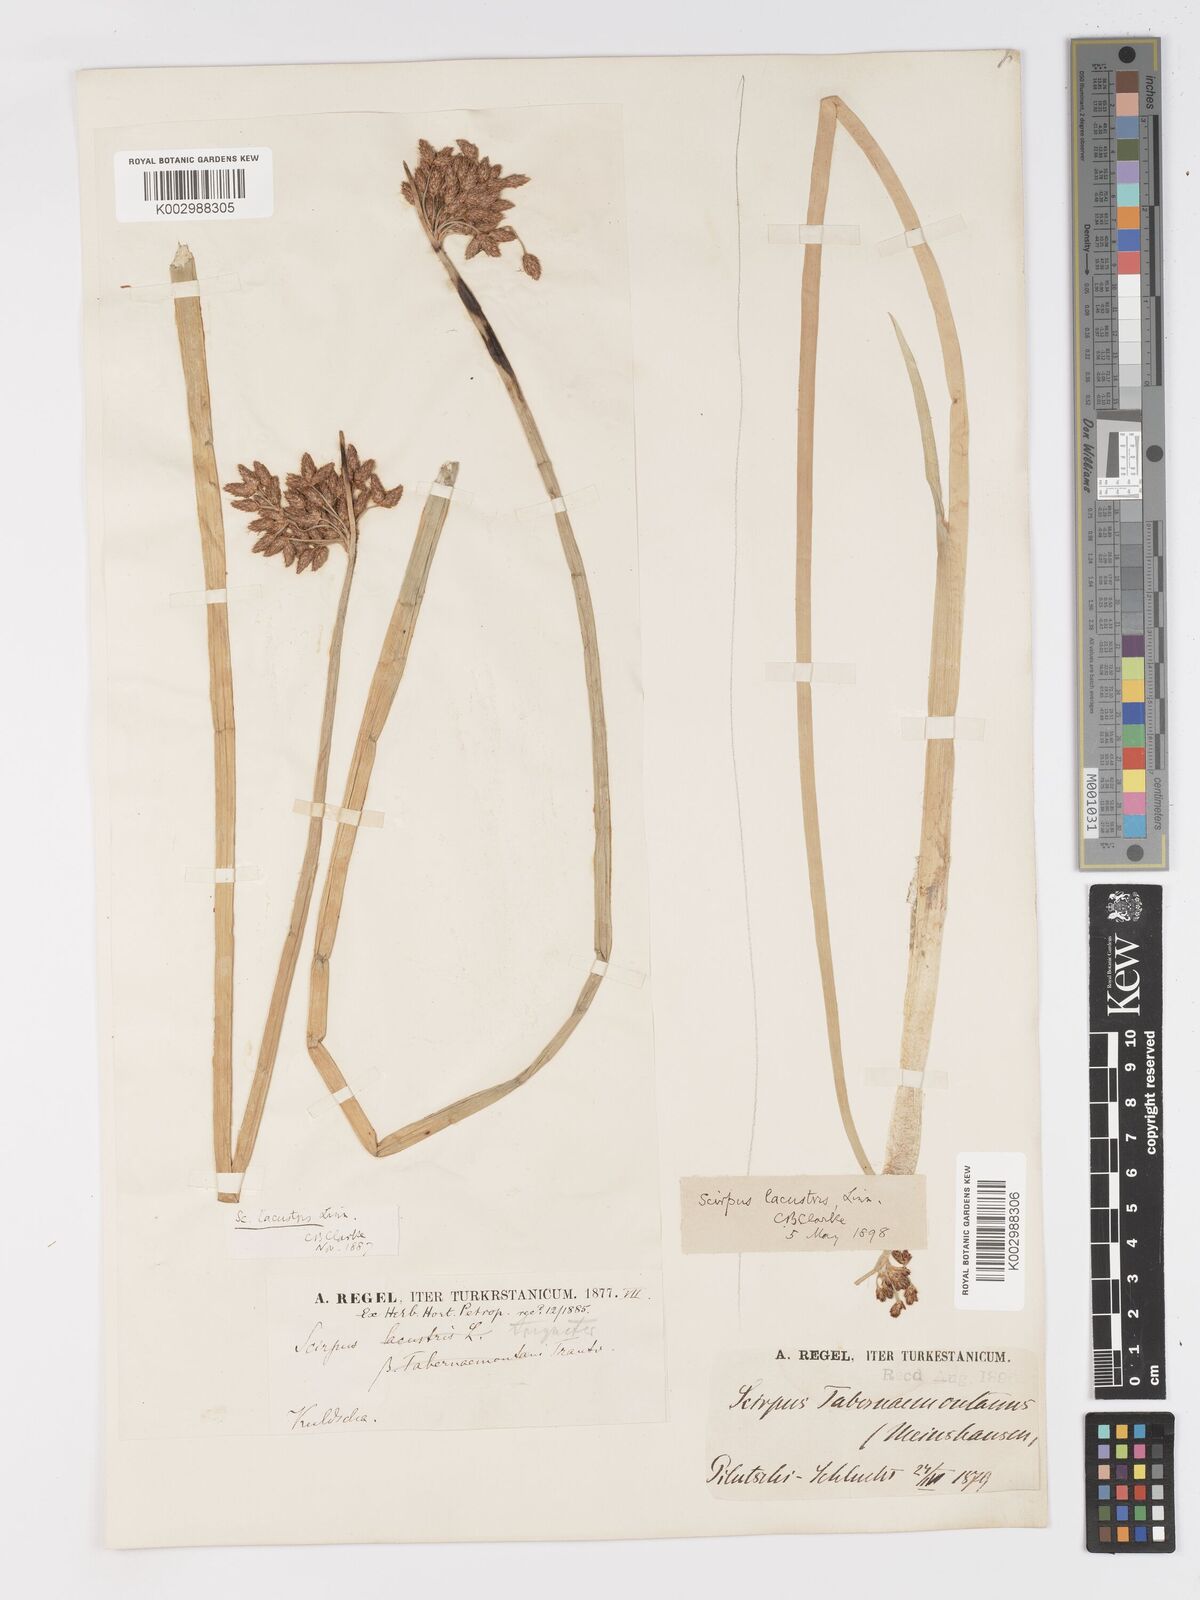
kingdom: Plantae
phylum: Tracheophyta
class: Liliopsida
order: Poales
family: Cyperaceae
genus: Schoenoplectus
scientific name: Schoenoplectus lacustris
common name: Common club-rush
